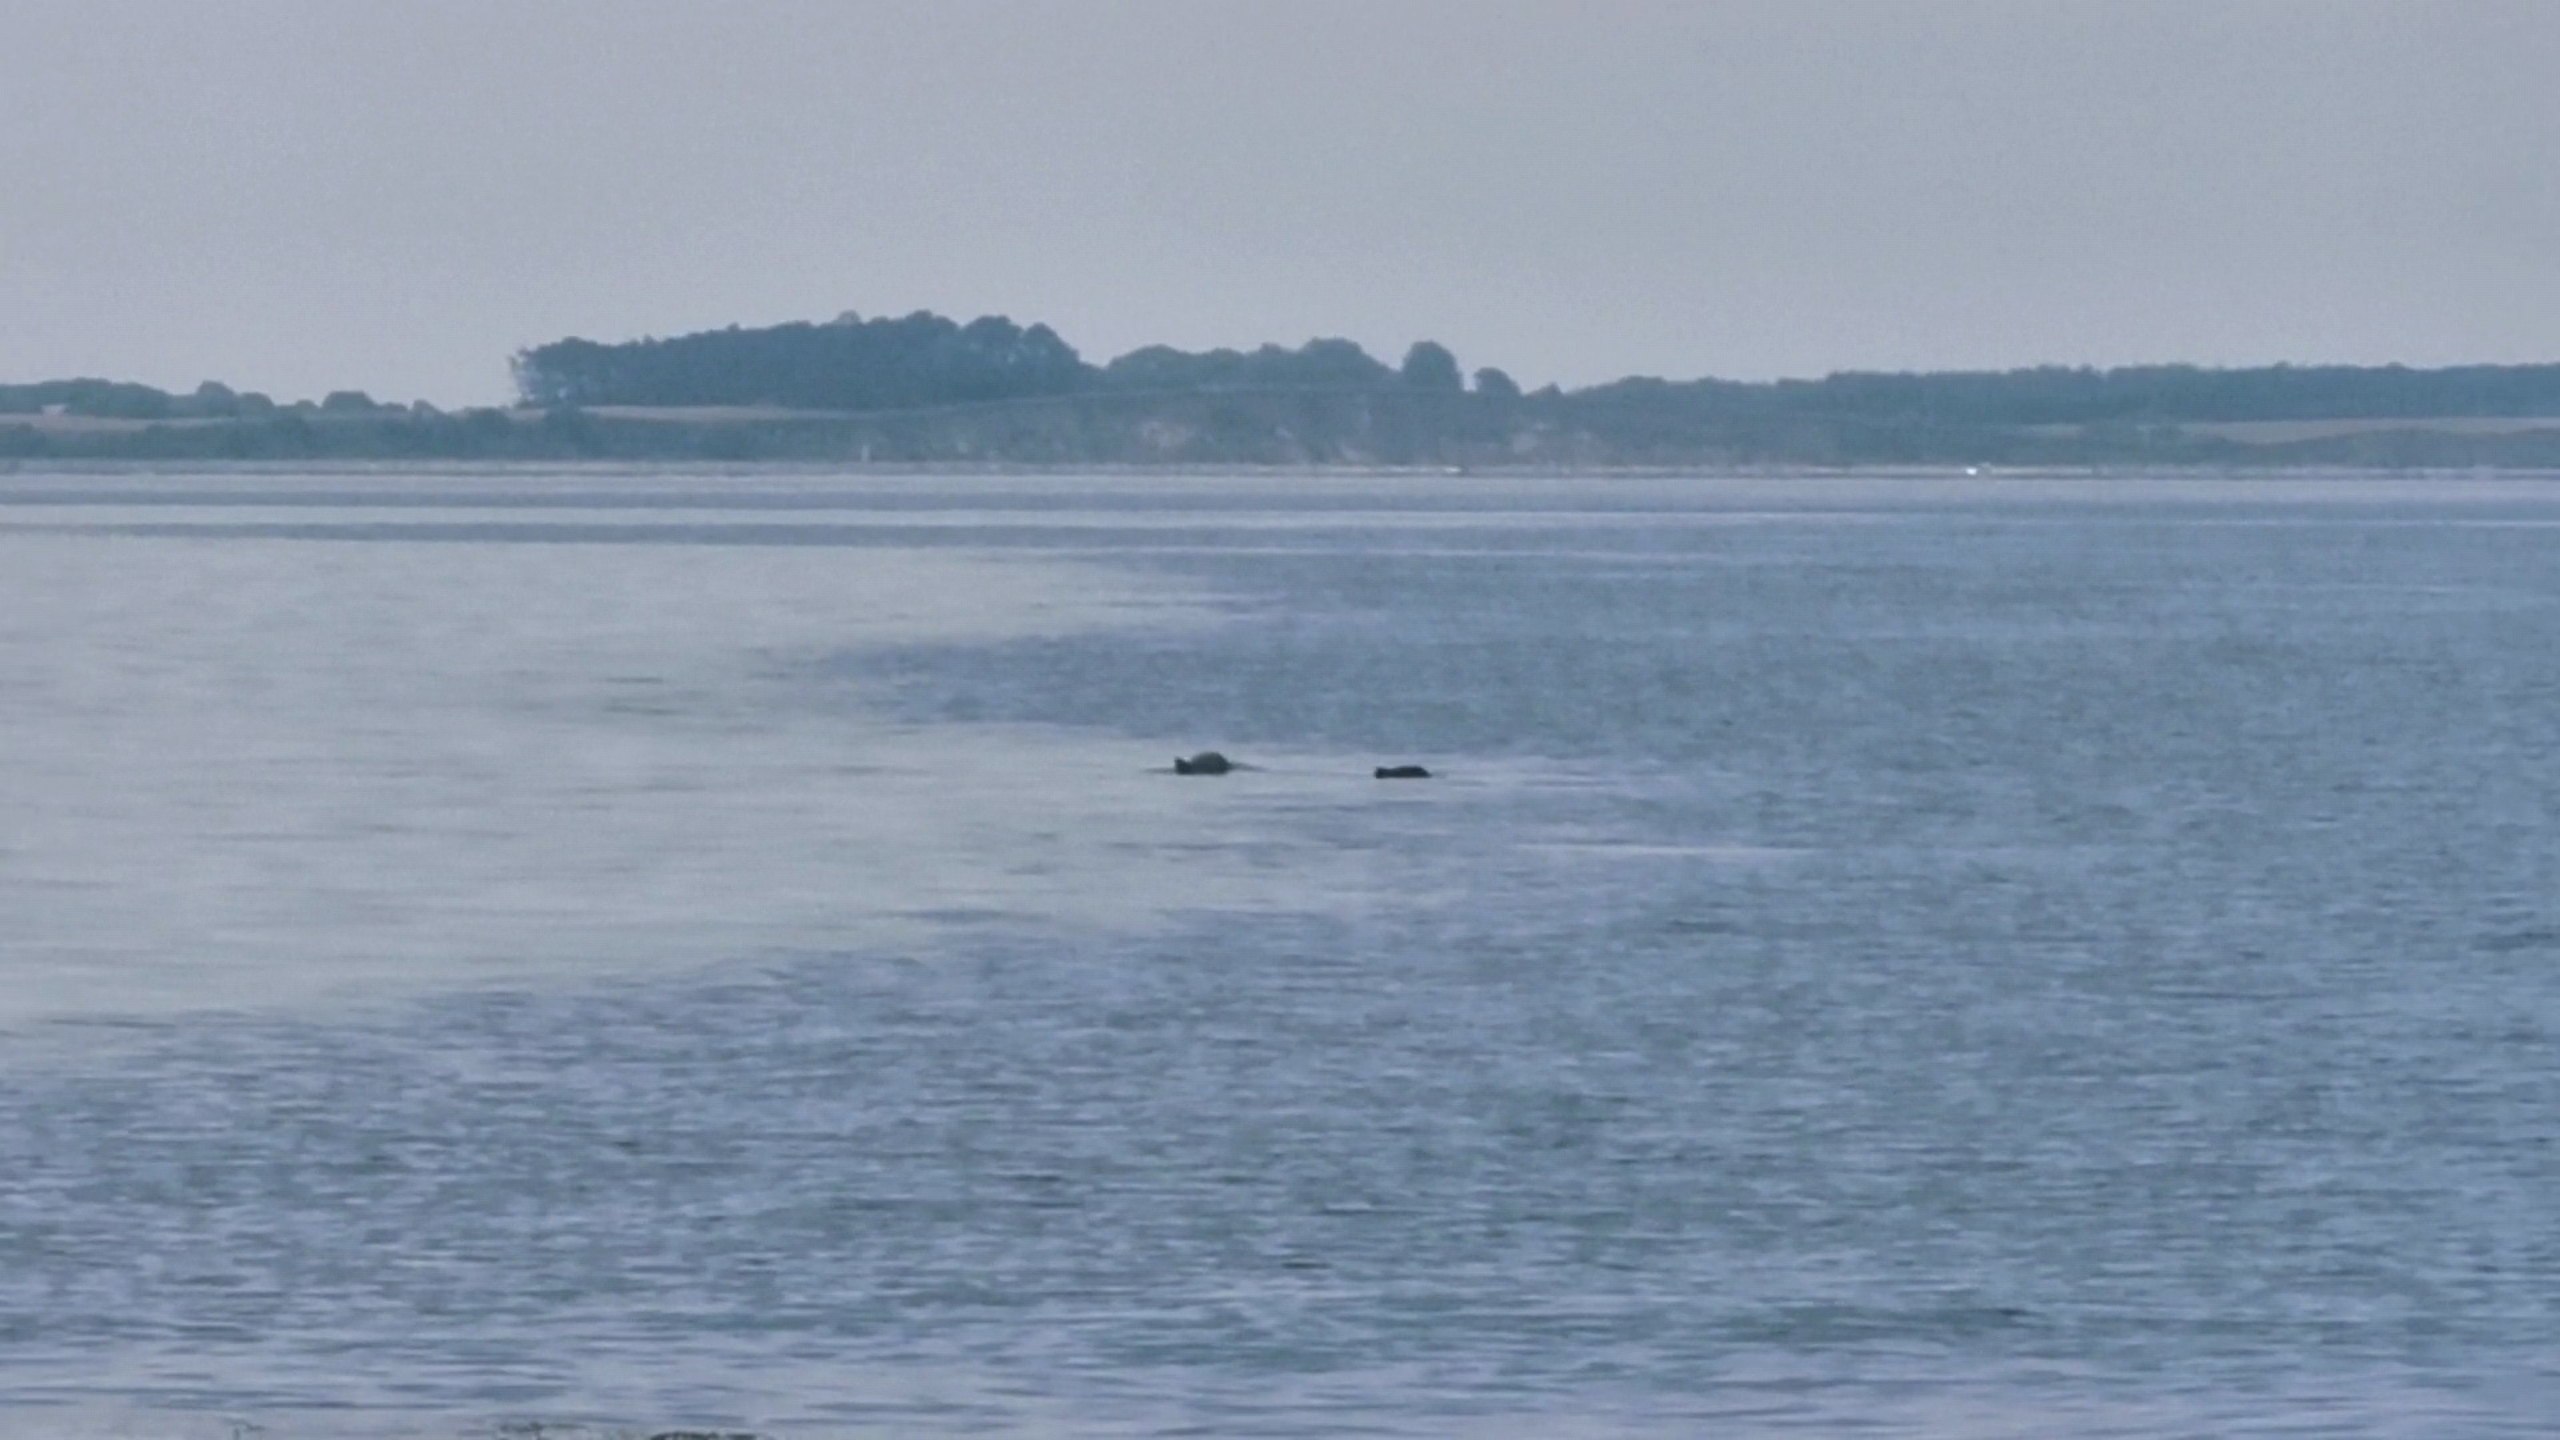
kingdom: Animalia
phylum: Chordata
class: Mammalia
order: Cetacea
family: Phocoenidae
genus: Phocoena
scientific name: Phocoena phocoena
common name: Marsvin
